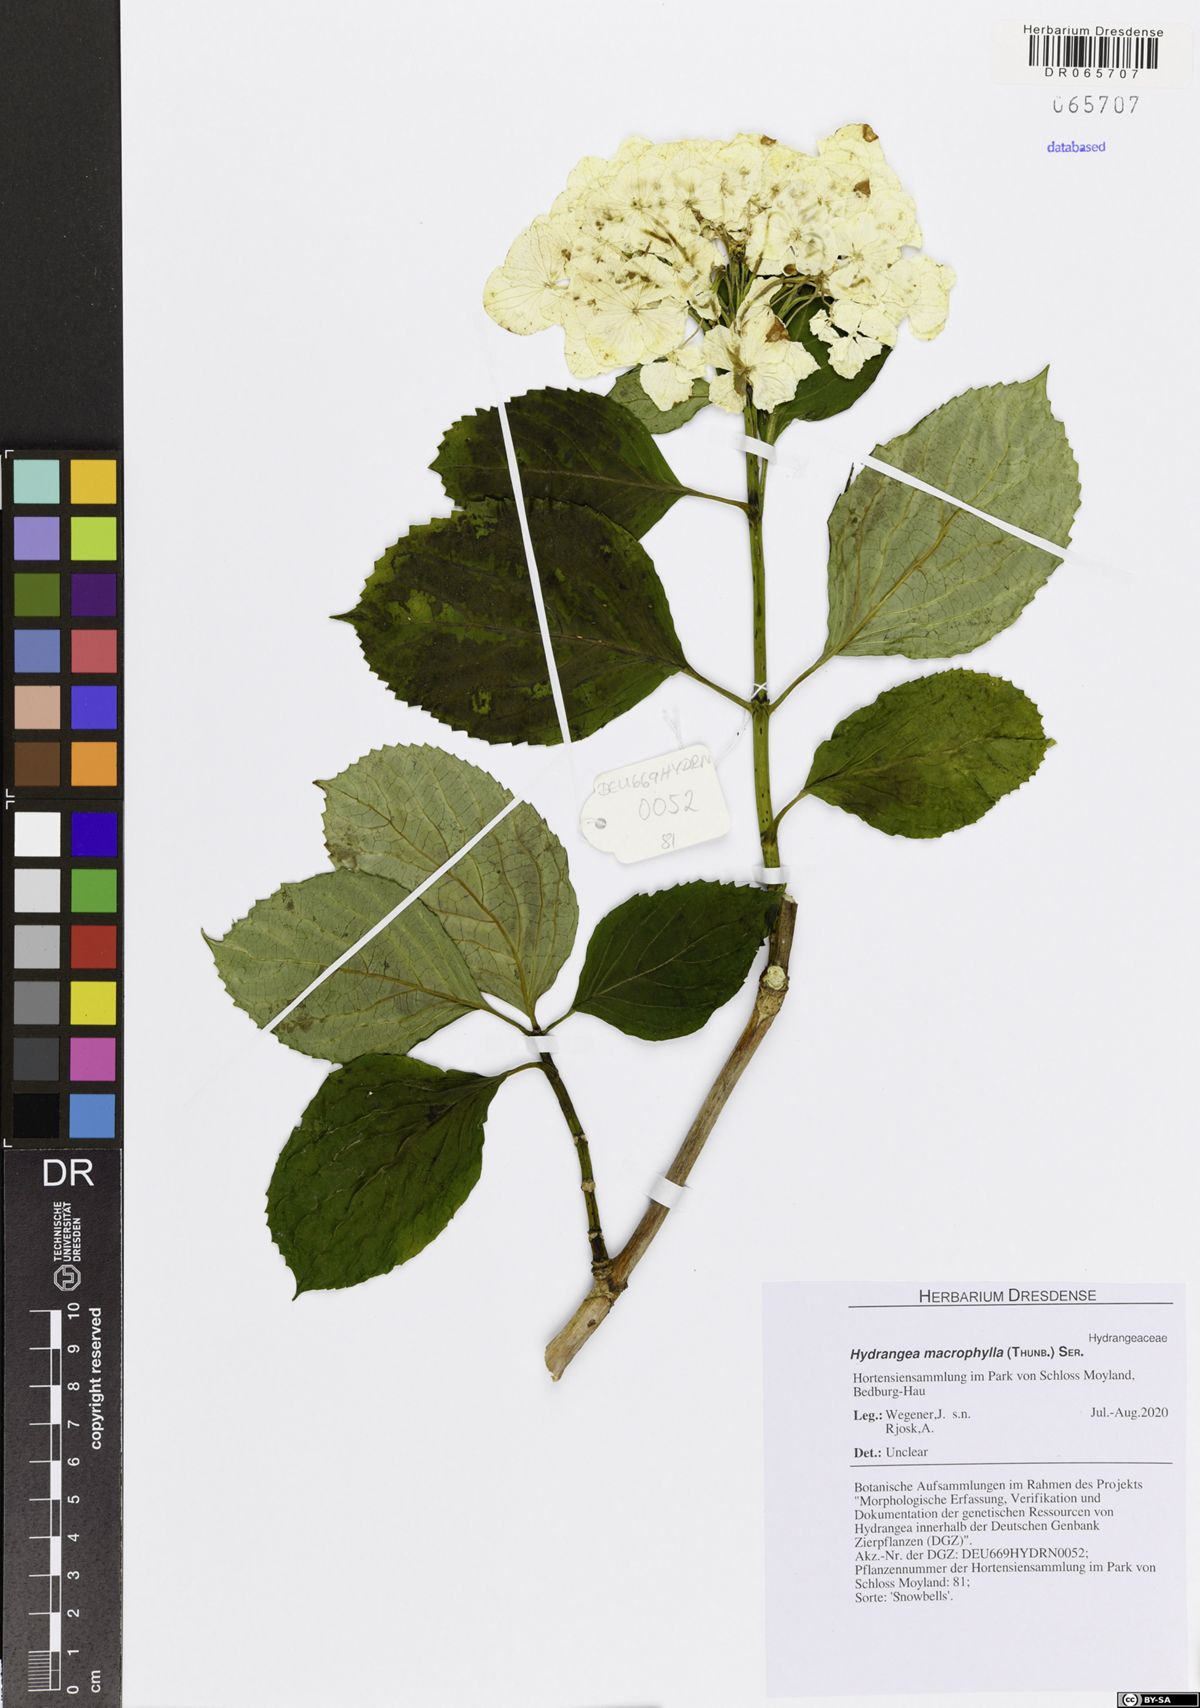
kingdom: Plantae
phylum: Tracheophyta
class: Magnoliopsida
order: Cornales
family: Hydrangeaceae
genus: Hydrangea
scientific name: Hydrangea macrophylla
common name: Hydrangea
